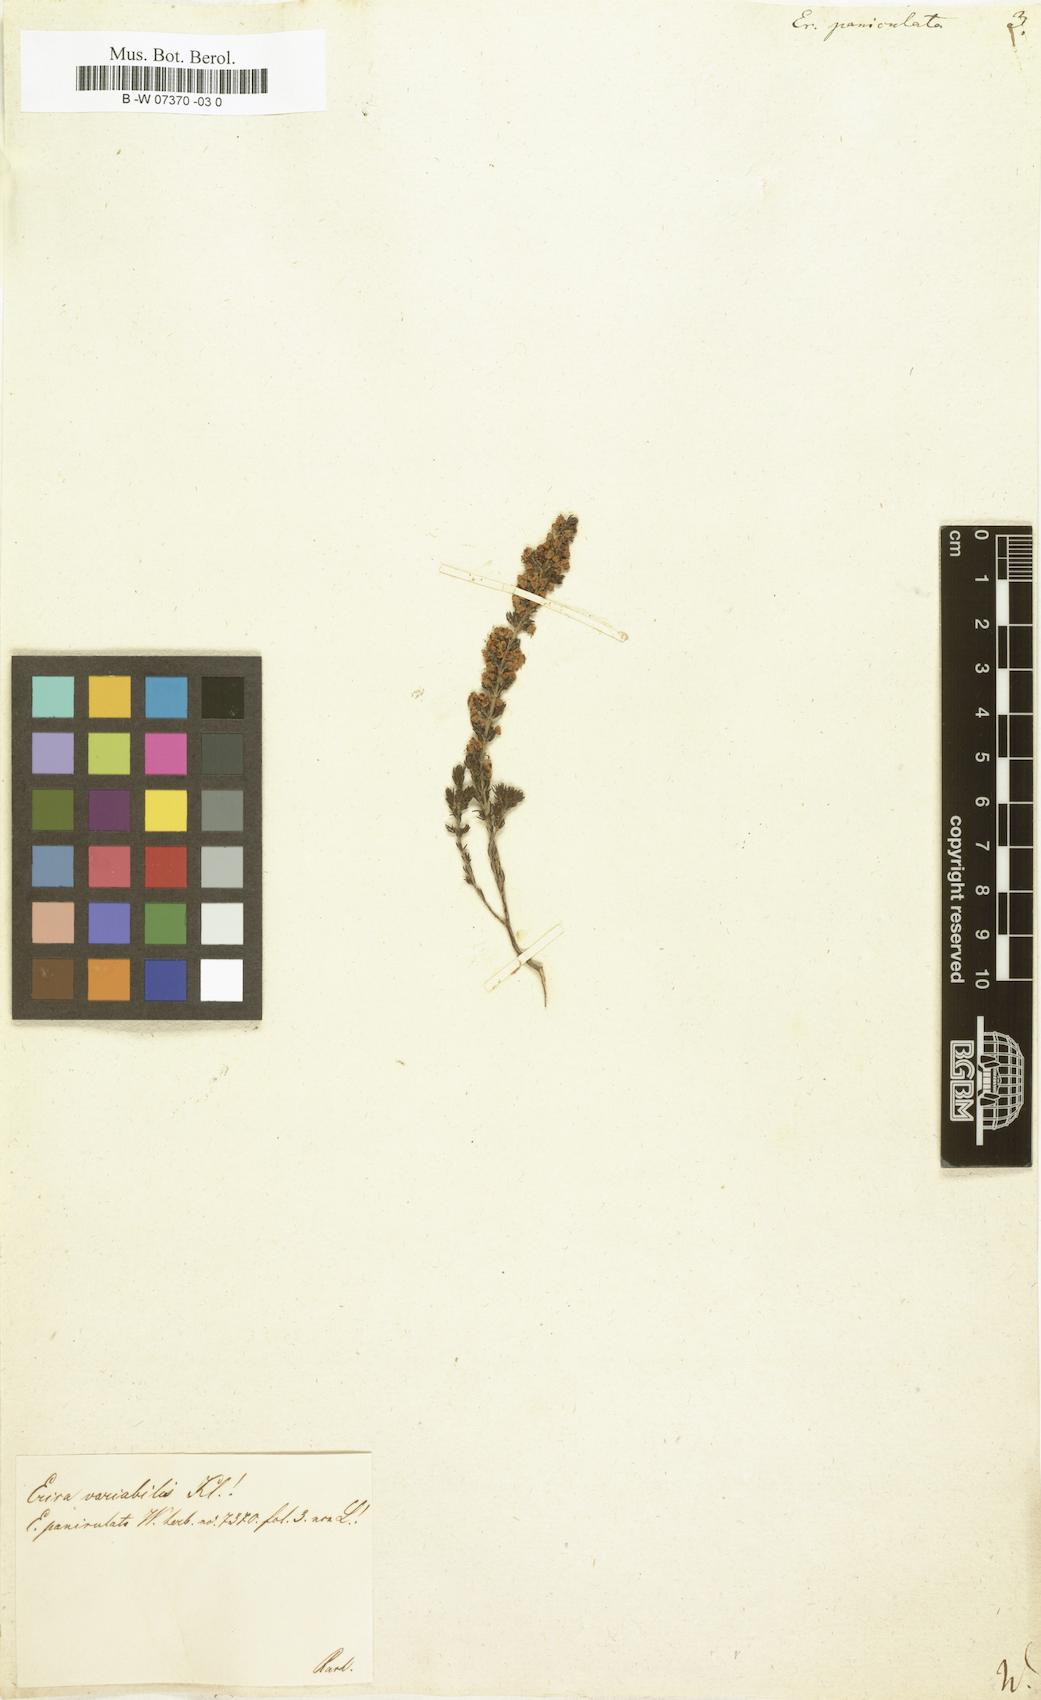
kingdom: Plantae
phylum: Tracheophyta
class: Magnoliopsida
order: Ericales
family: Ericaceae
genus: Erica
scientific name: Erica paniculata
